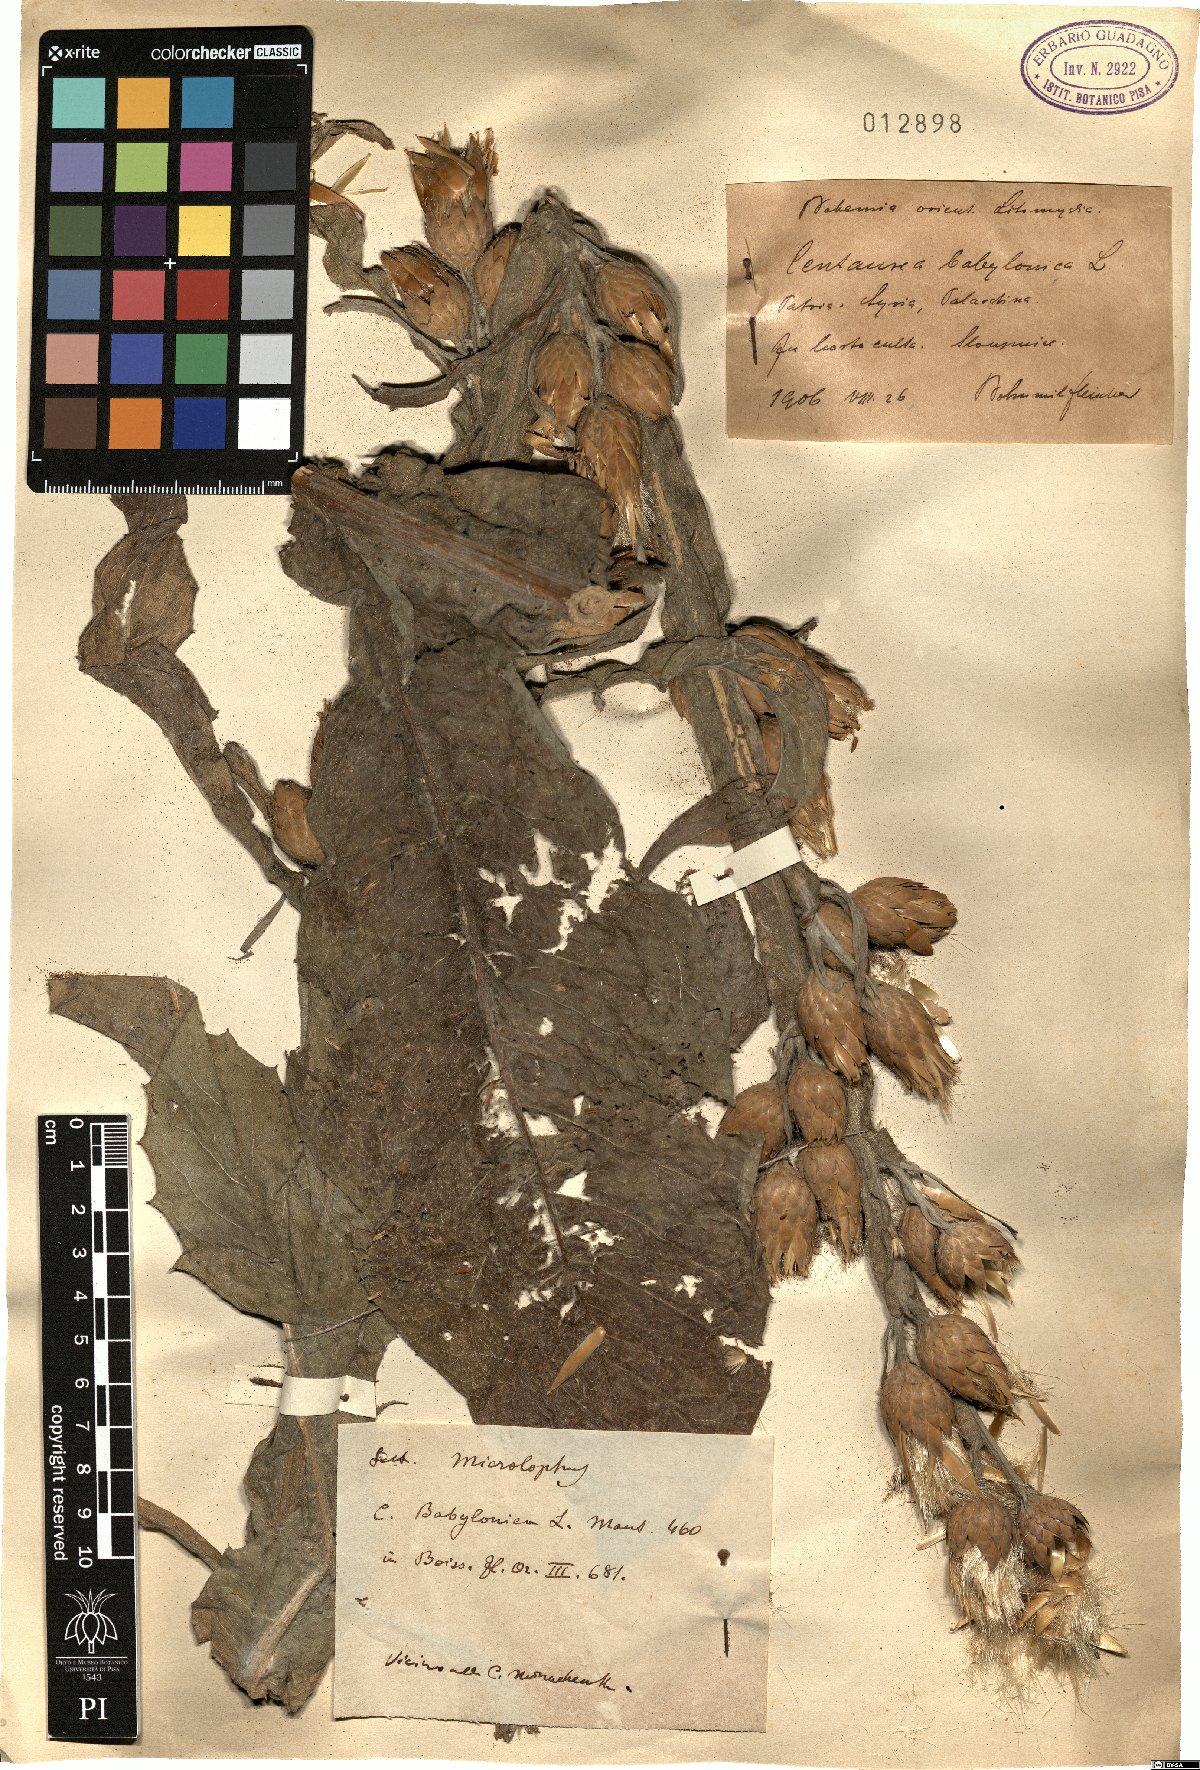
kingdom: Plantae
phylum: Tracheophyta
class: Magnoliopsida
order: Asterales
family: Asteraceae
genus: Centaurea
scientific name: Centaurea babylonica
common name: Syrian knapweed
